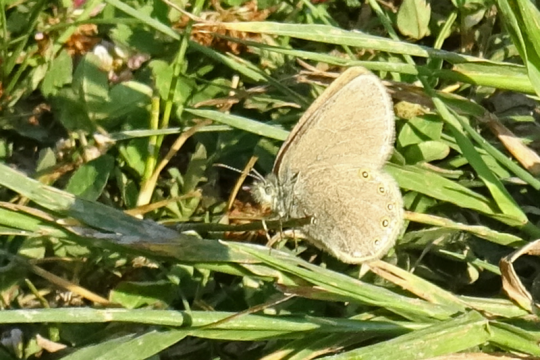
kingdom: Animalia
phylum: Arthropoda
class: Insecta
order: Lepidoptera
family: Nymphalidae
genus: Coenonympha
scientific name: Coenonympha haydeni
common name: Hayden's Ringlet
